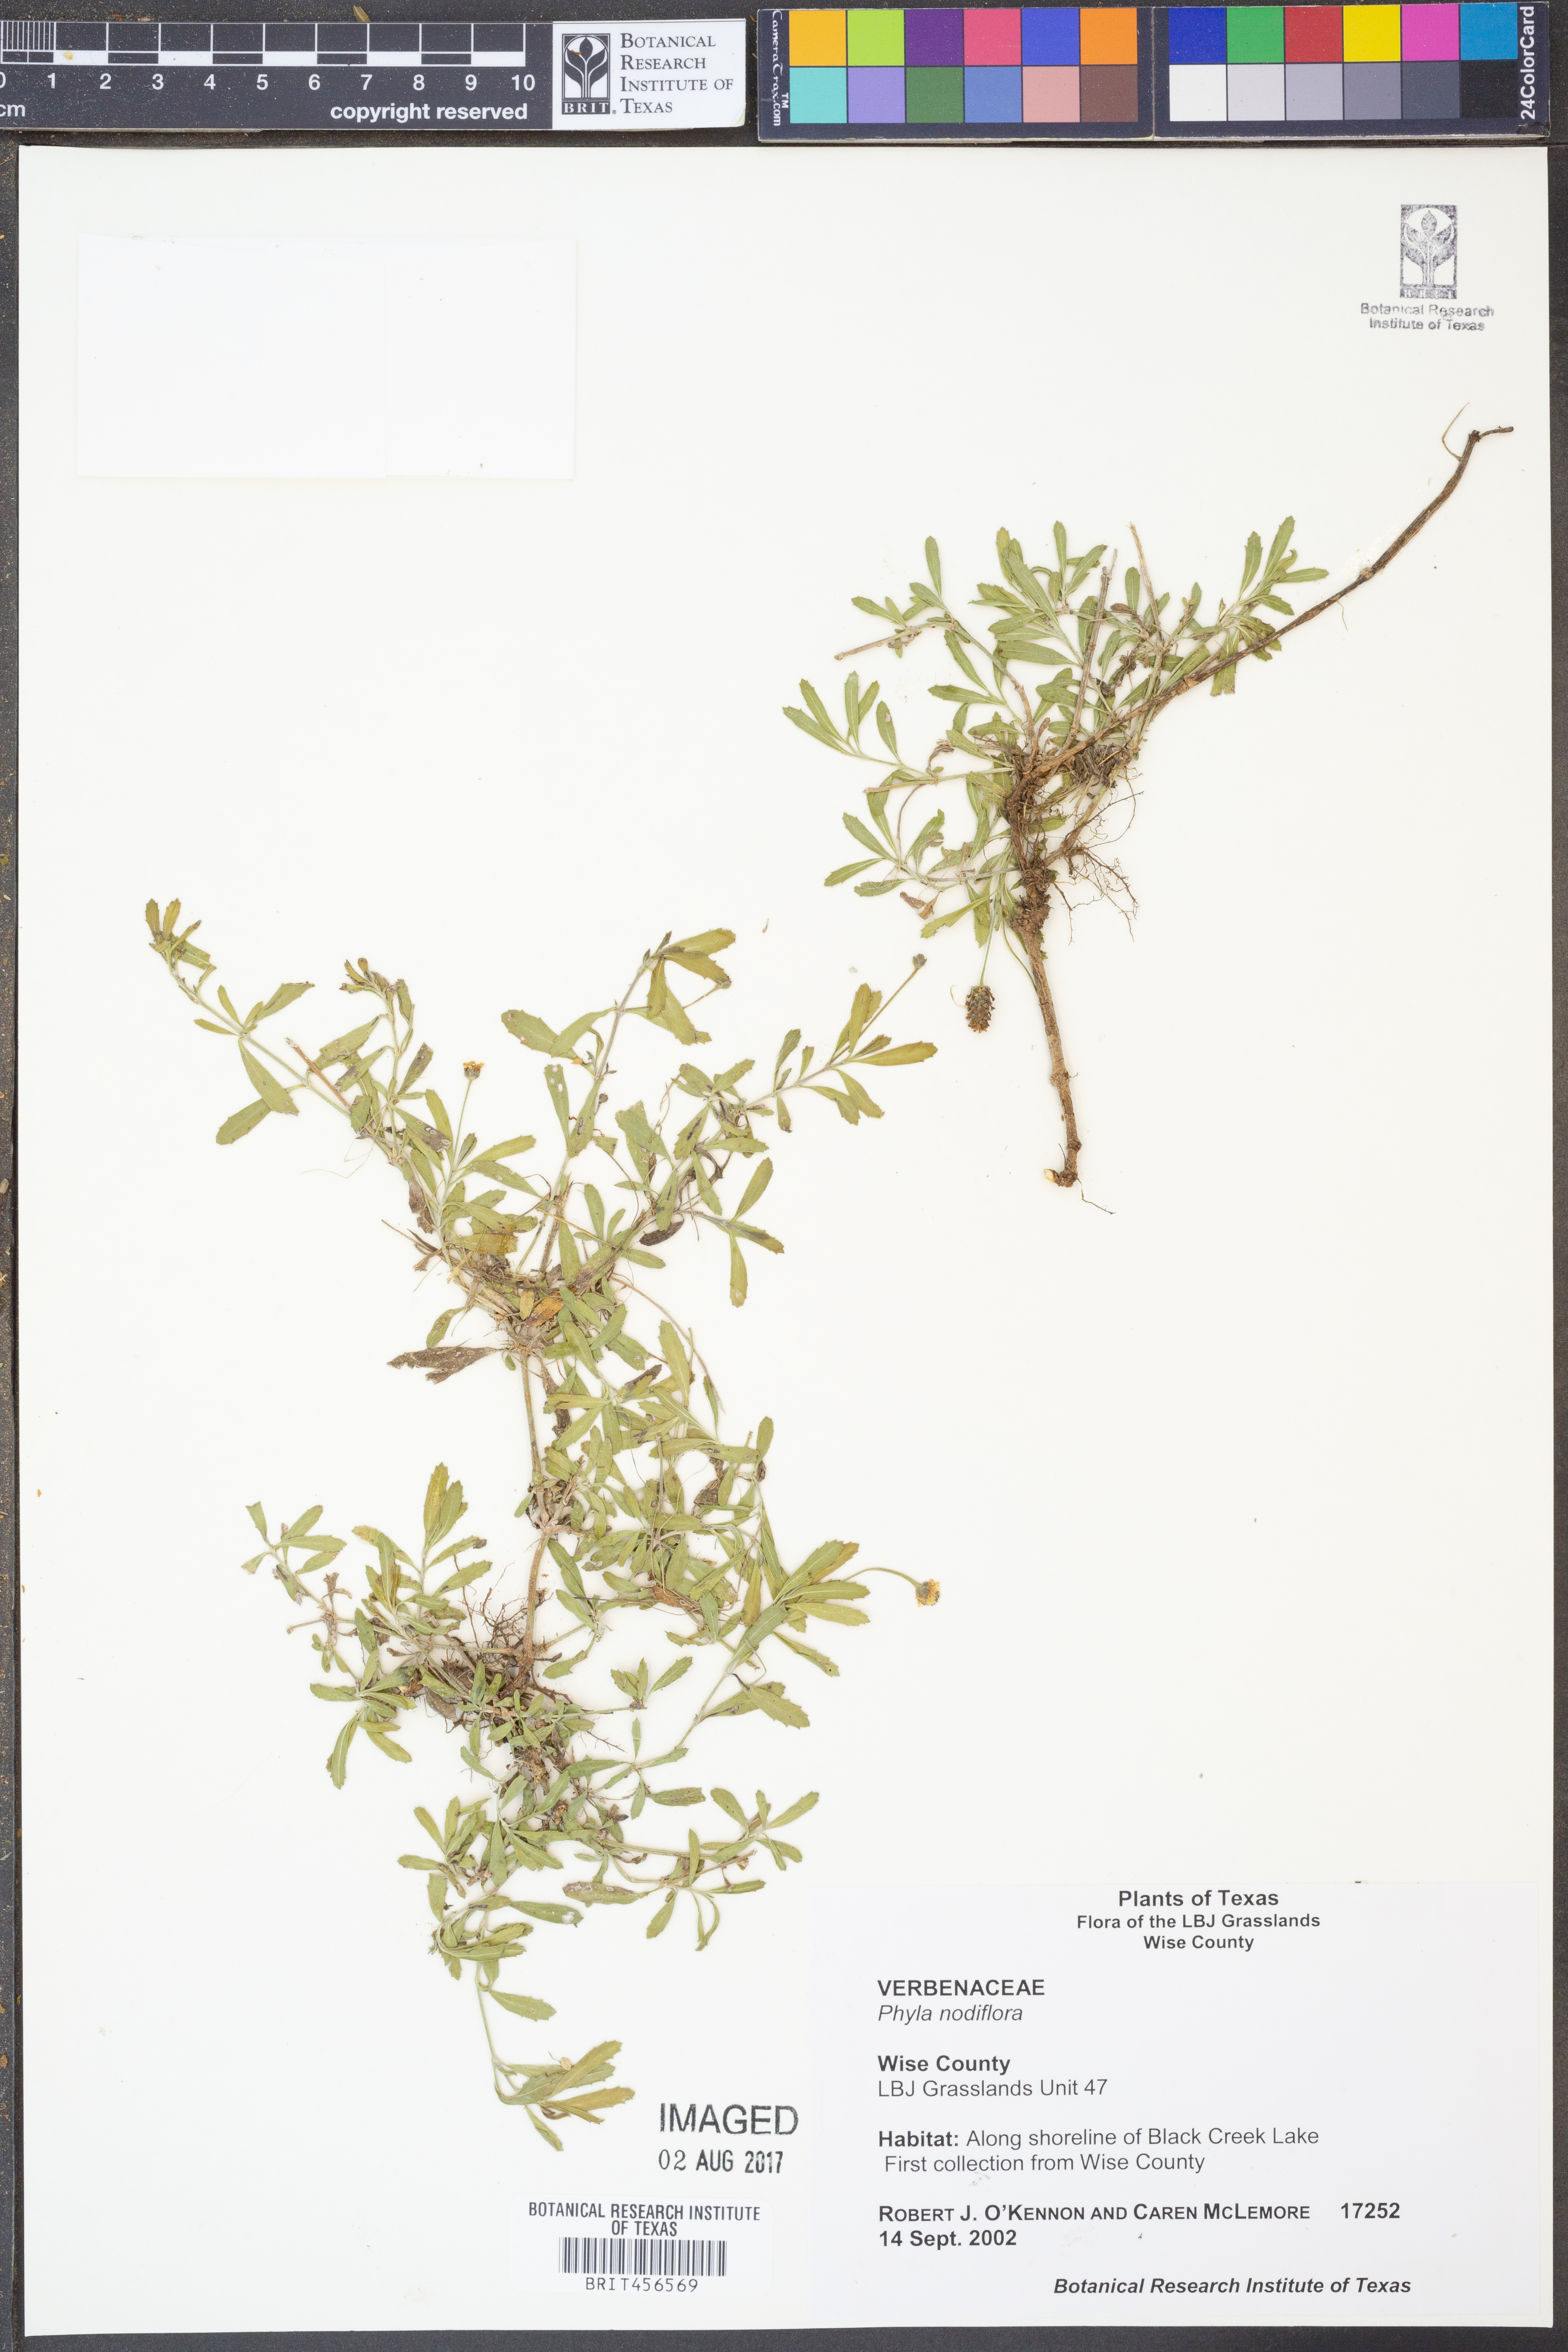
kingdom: Plantae
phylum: Tracheophyta
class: Magnoliopsida
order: Lamiales
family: Verbenaceae
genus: Phyla
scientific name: Phyla nodiflora
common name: Frogfruit
